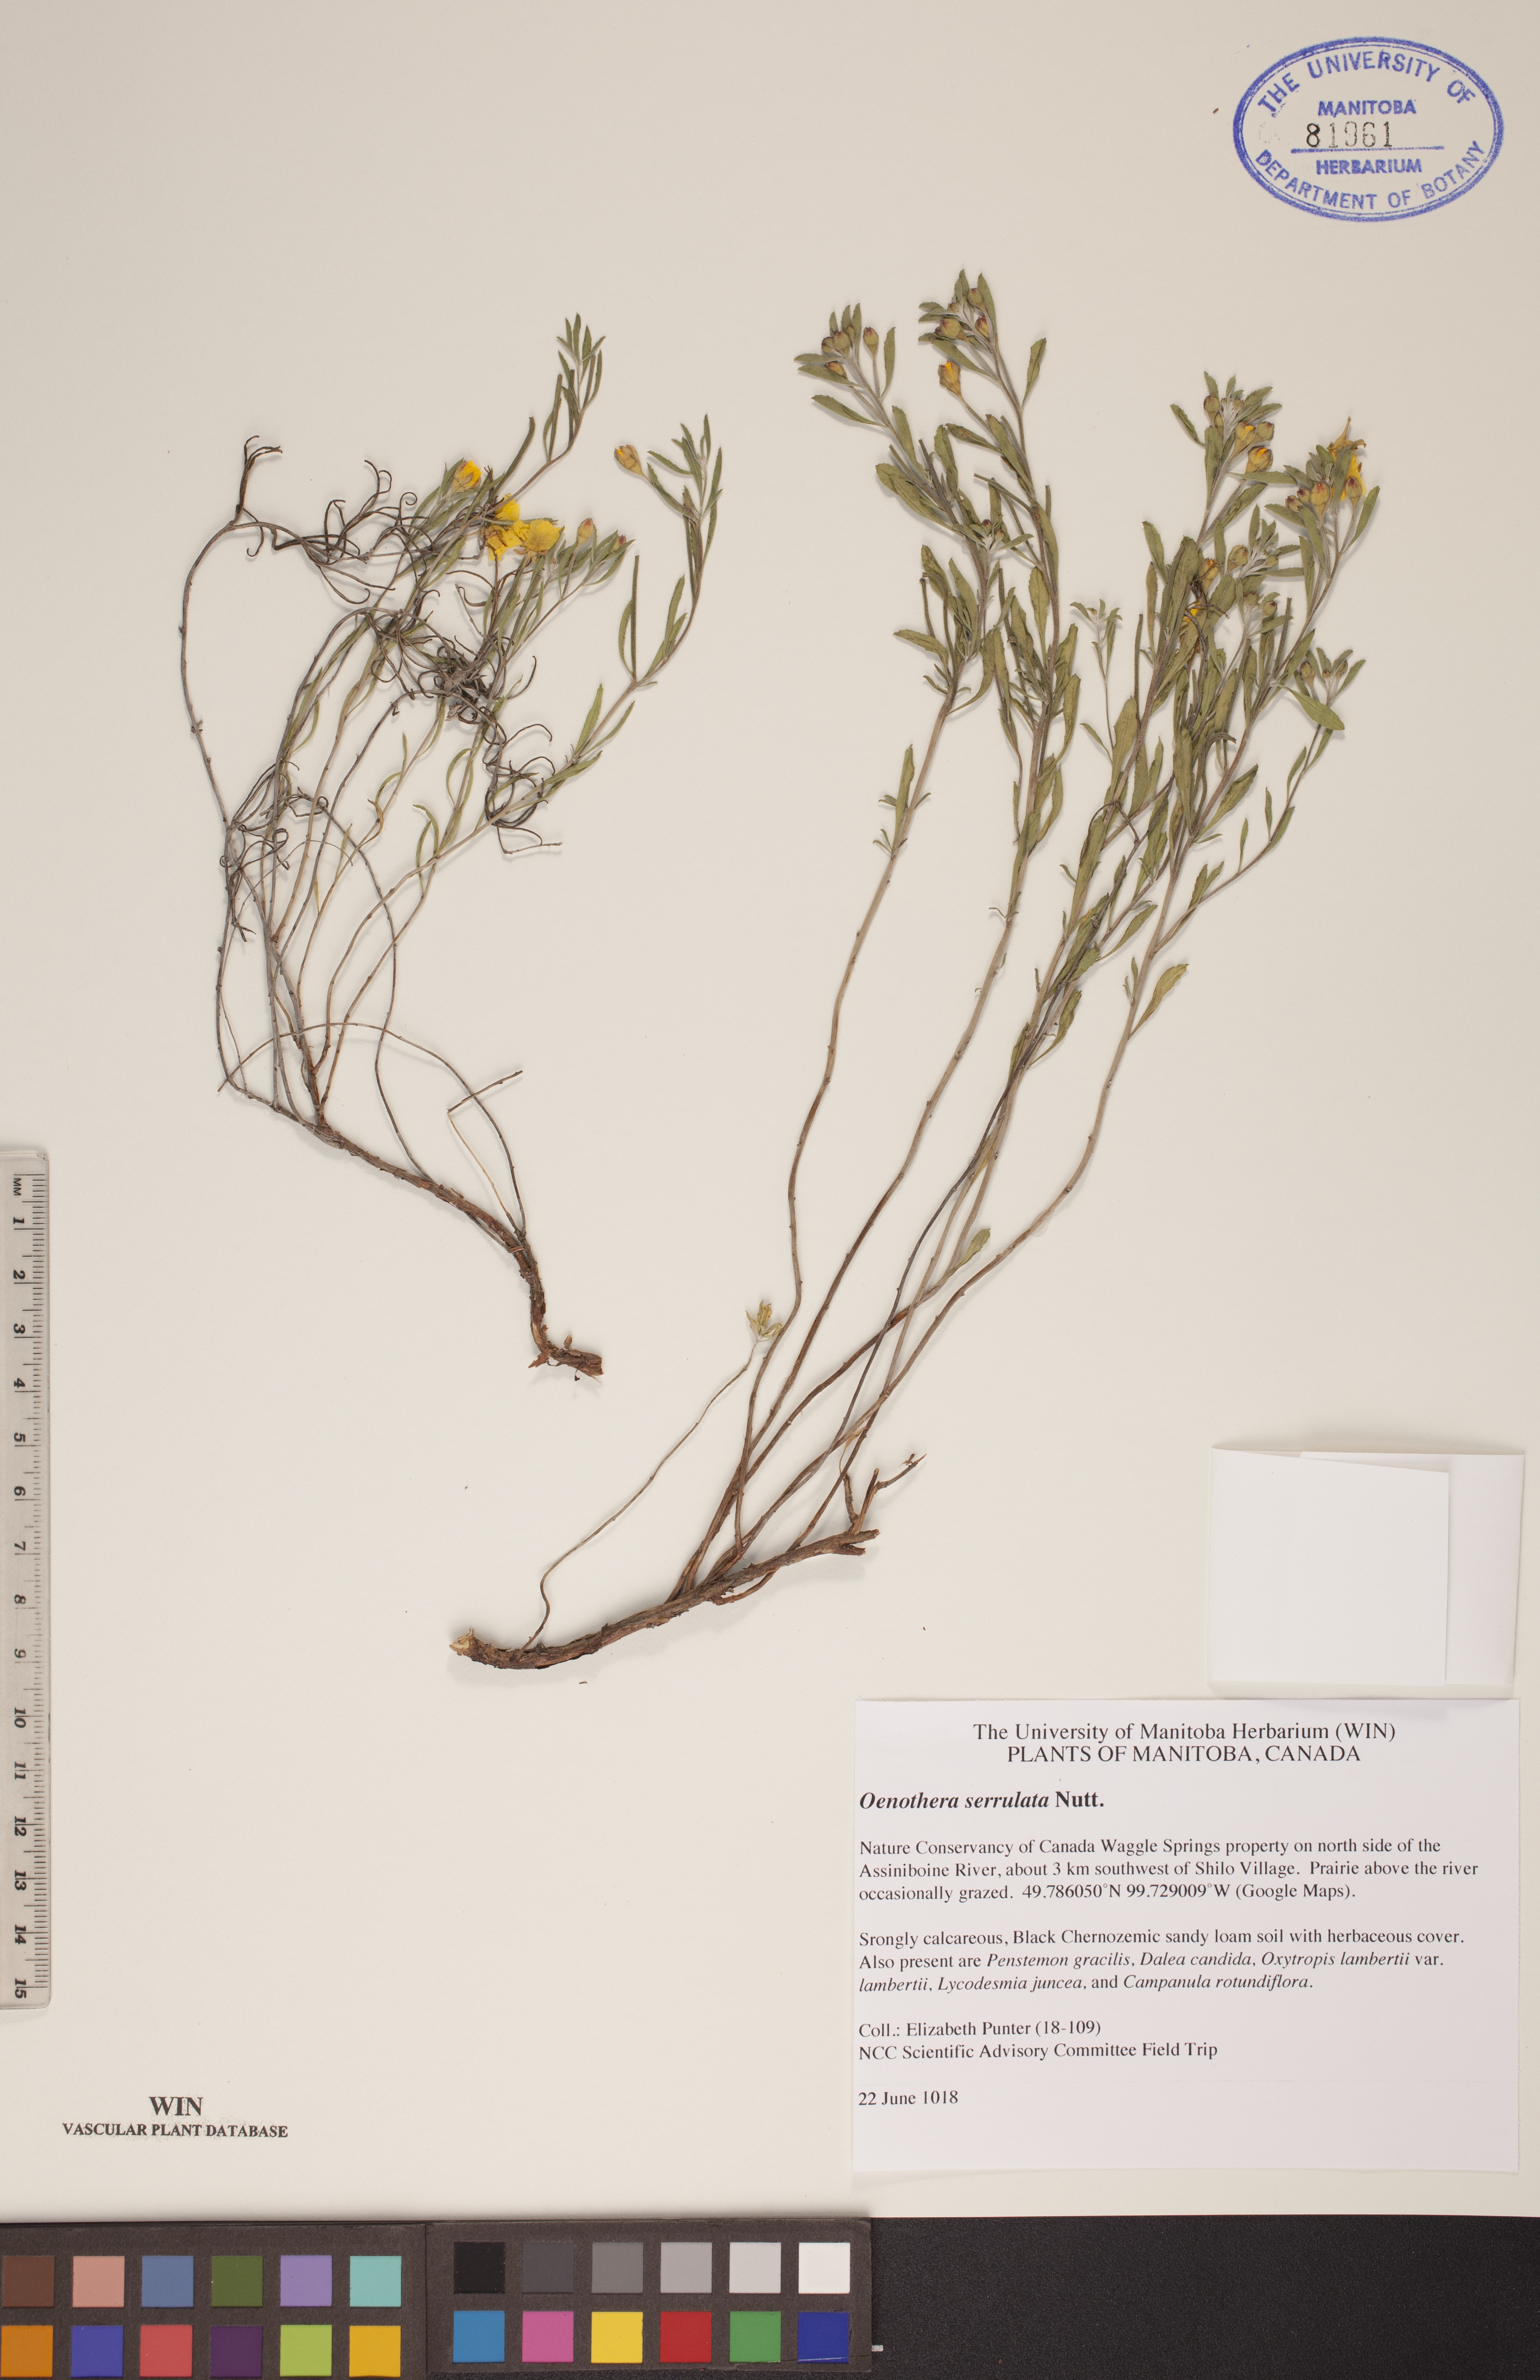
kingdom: Plantae
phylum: Tracheophyta
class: Magnoliopsida
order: Myrtales
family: Onagraceae
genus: Oenothera
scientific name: Oenothera serrulata
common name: Half-shrub calylophus
